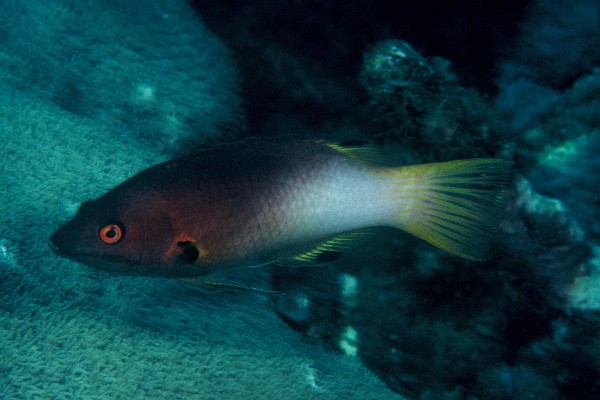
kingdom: Animalia
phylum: Chordata
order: Perciformes
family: Labridae
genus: Bodianus
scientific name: Bodianus axillaris
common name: Axilspot hogfish
